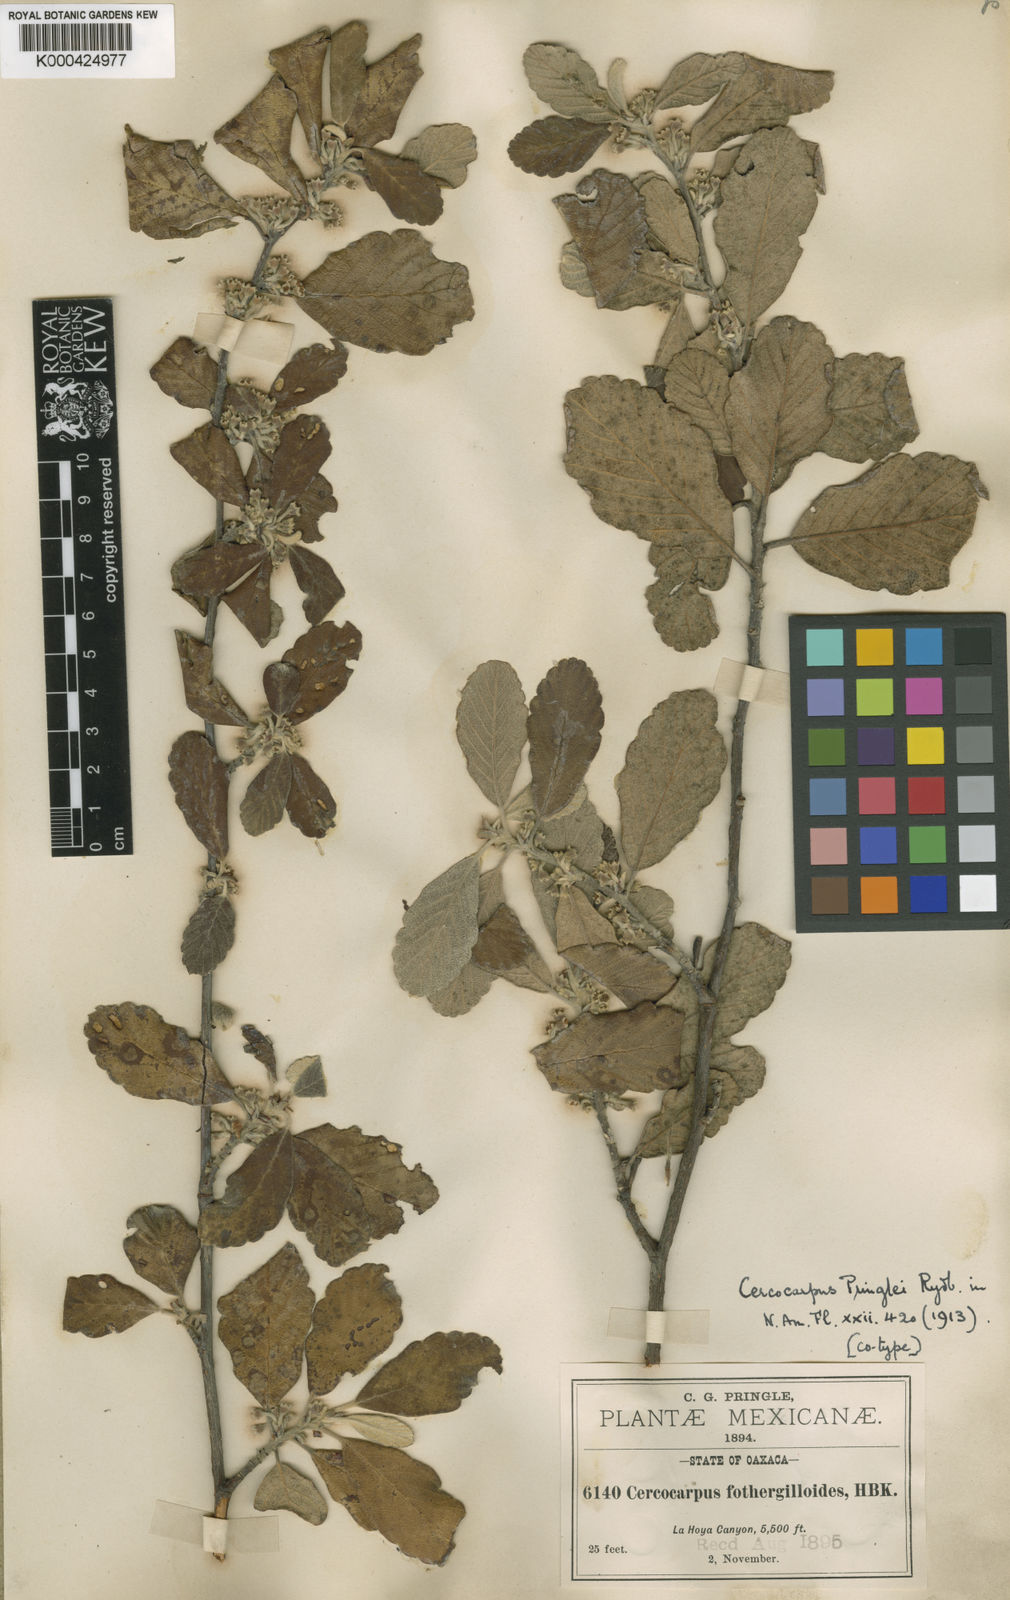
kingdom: Plantae
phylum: Tracheophyta
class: Magnoliopsida
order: Rosales
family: Rosaceae
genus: Cercocarpus
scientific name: Cercocarpus pringlei
